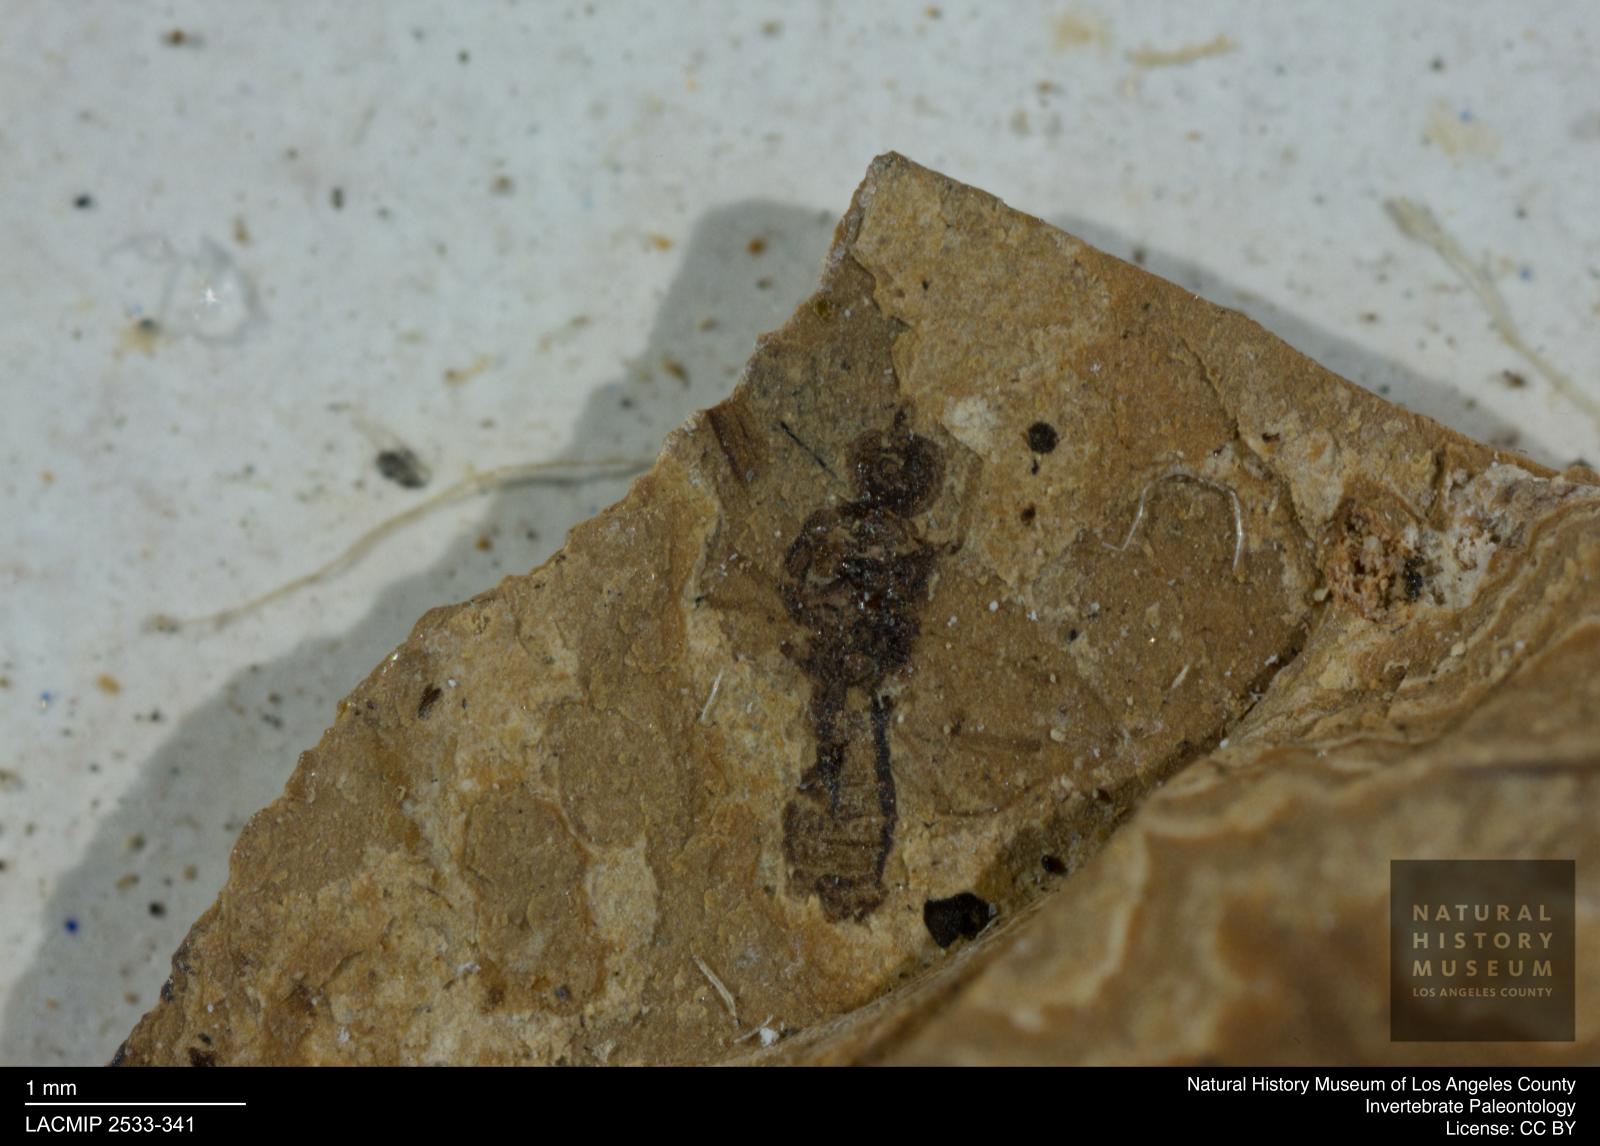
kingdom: Animalia
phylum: Arthropoda
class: Insecta
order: Diptera
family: Ceratopogonidae
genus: Culicoides
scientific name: Culicoides ventralis
